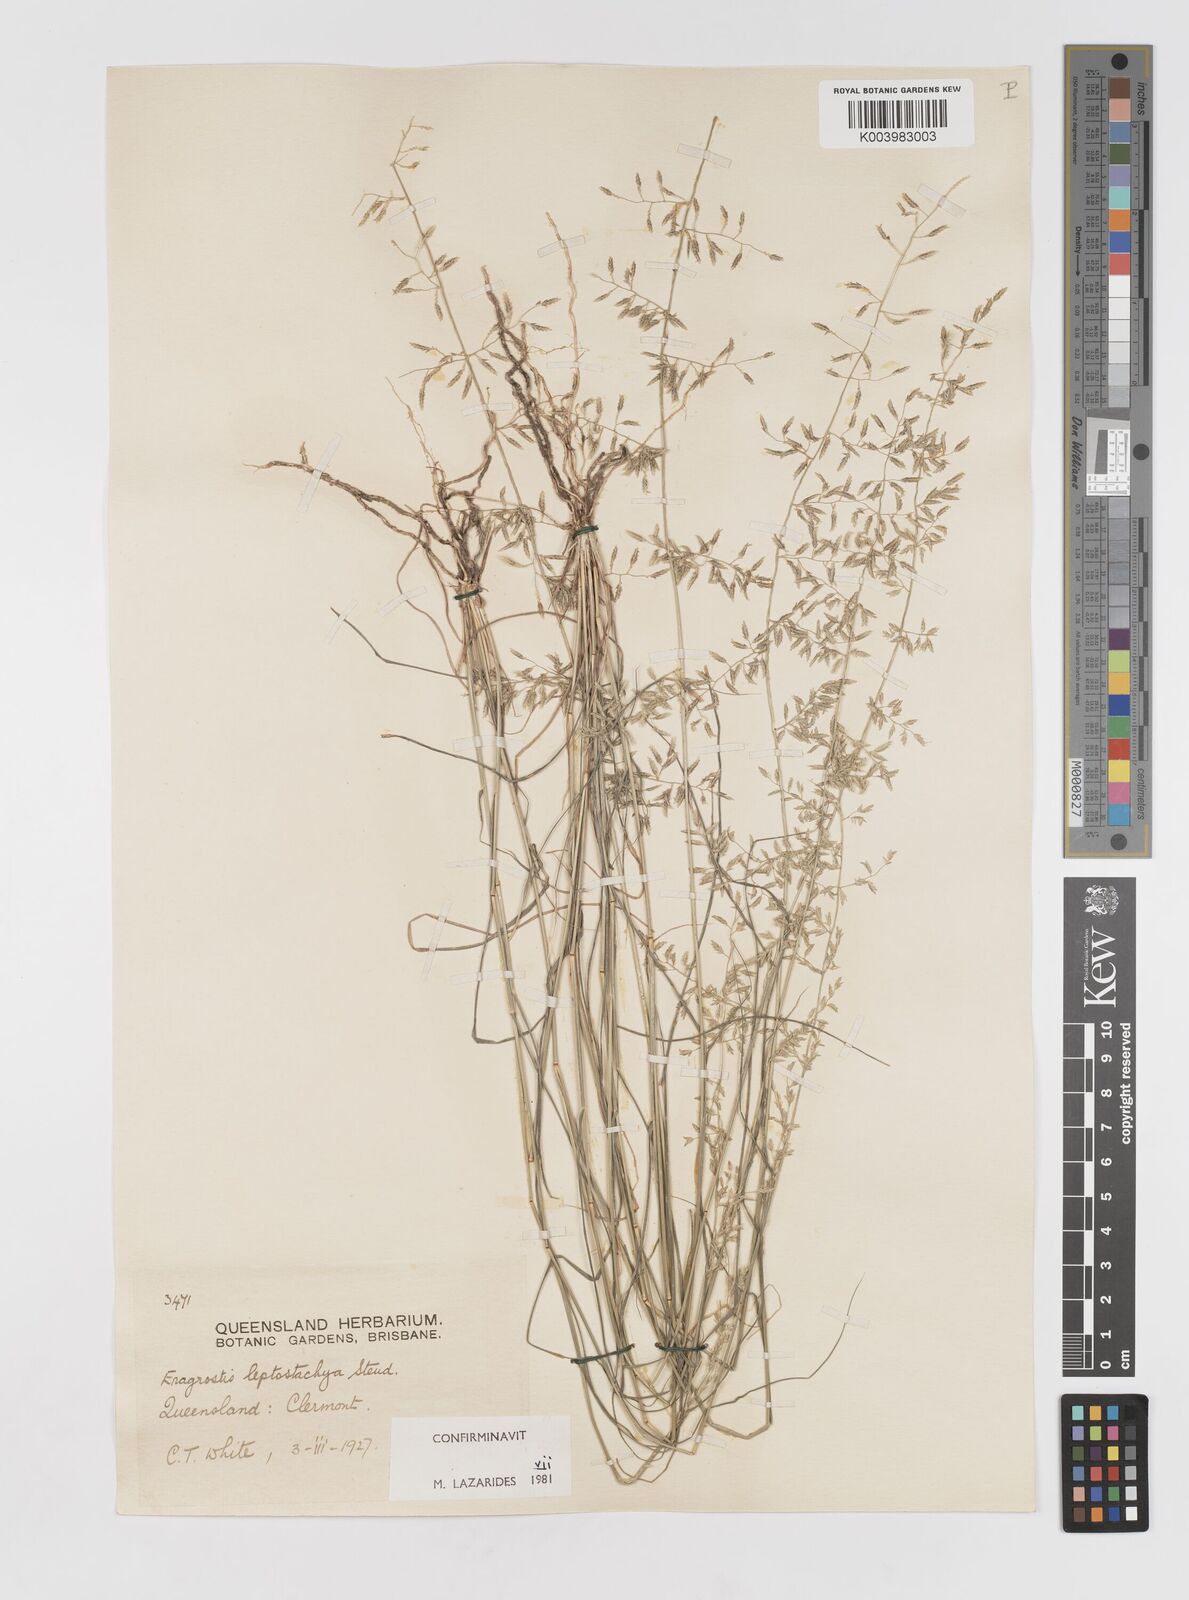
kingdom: Plantae
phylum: Tracheophyta
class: Liliopsida
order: Poales
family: Poaceae
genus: Eragrostis
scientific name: Eragrostis leptostachya
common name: Australian lovegrass
